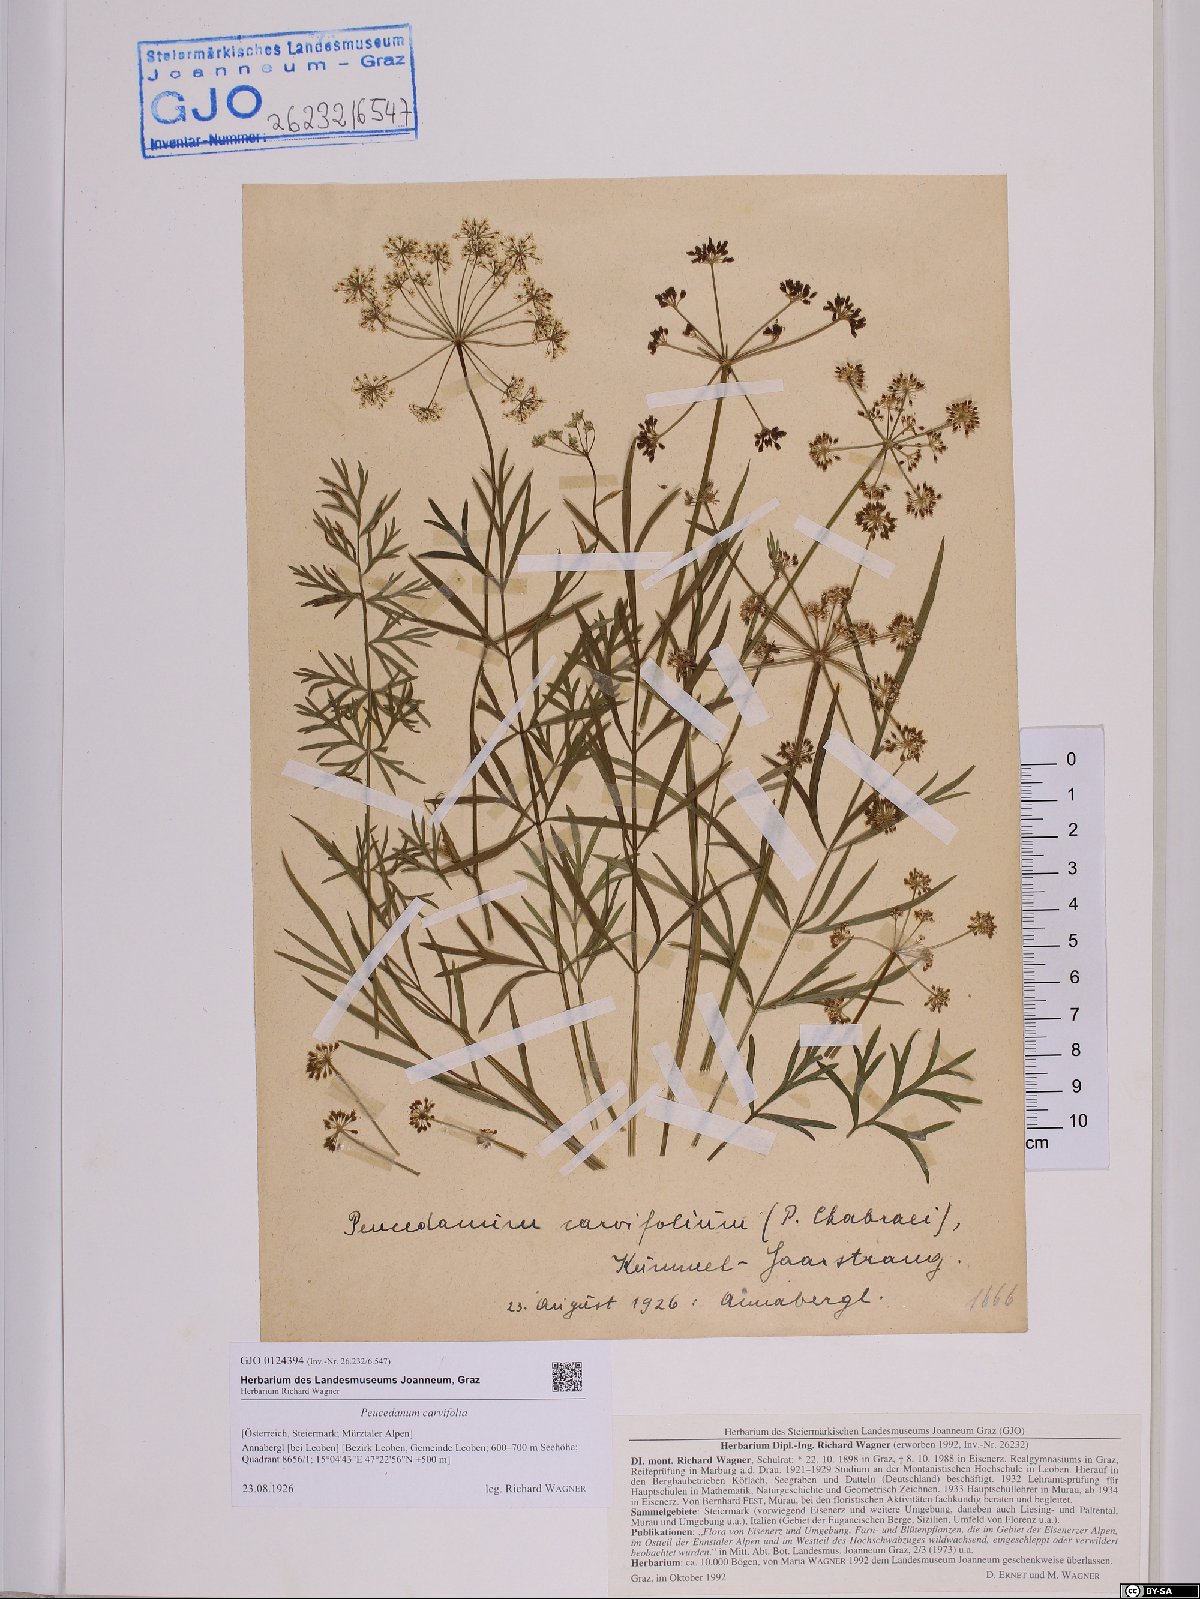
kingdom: Plantae
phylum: Tracheophyta
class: Magnoliopsida
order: Apiales
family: Apiaceae
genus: Dichoropetalum
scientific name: Dichoropetalum carvifolia
